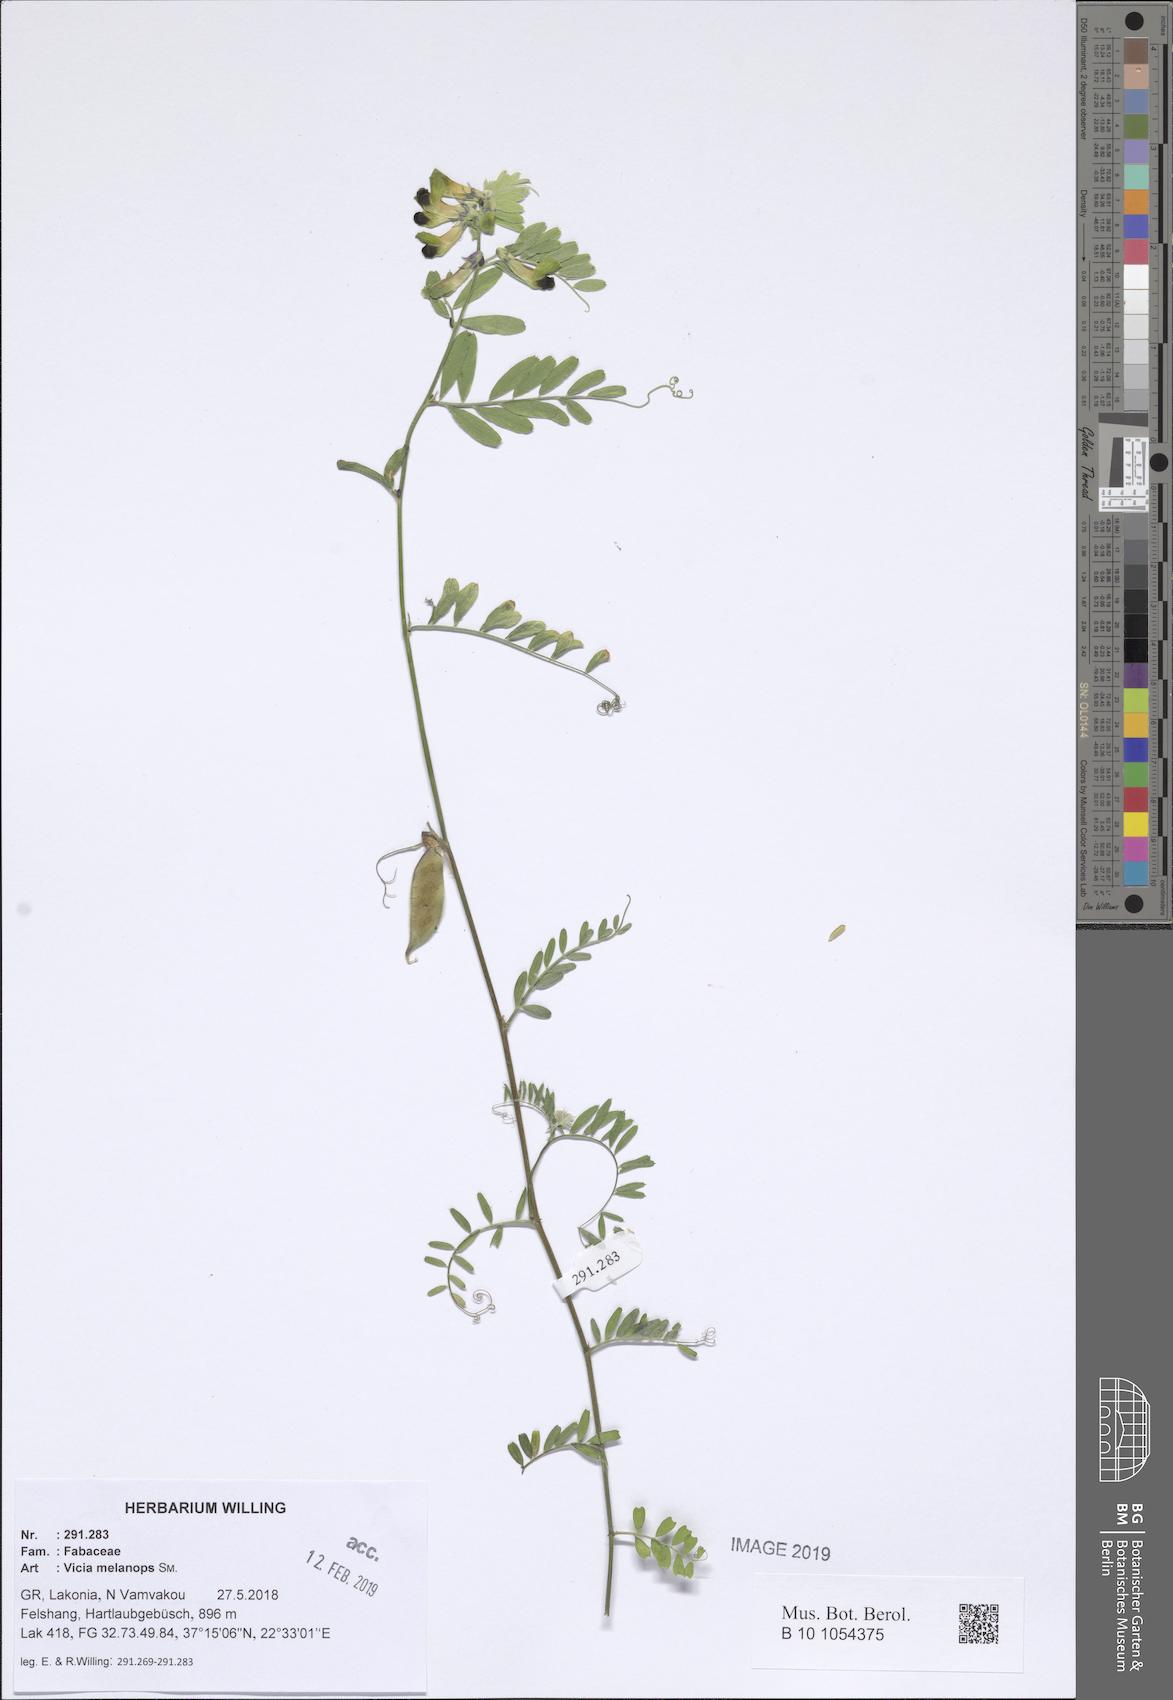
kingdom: Plantae
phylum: Tracheophyta
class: Magnoliopsida
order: Fabales
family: Fabaceae
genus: Vicia
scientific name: Vicia melanops
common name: Black-eyed vetch
